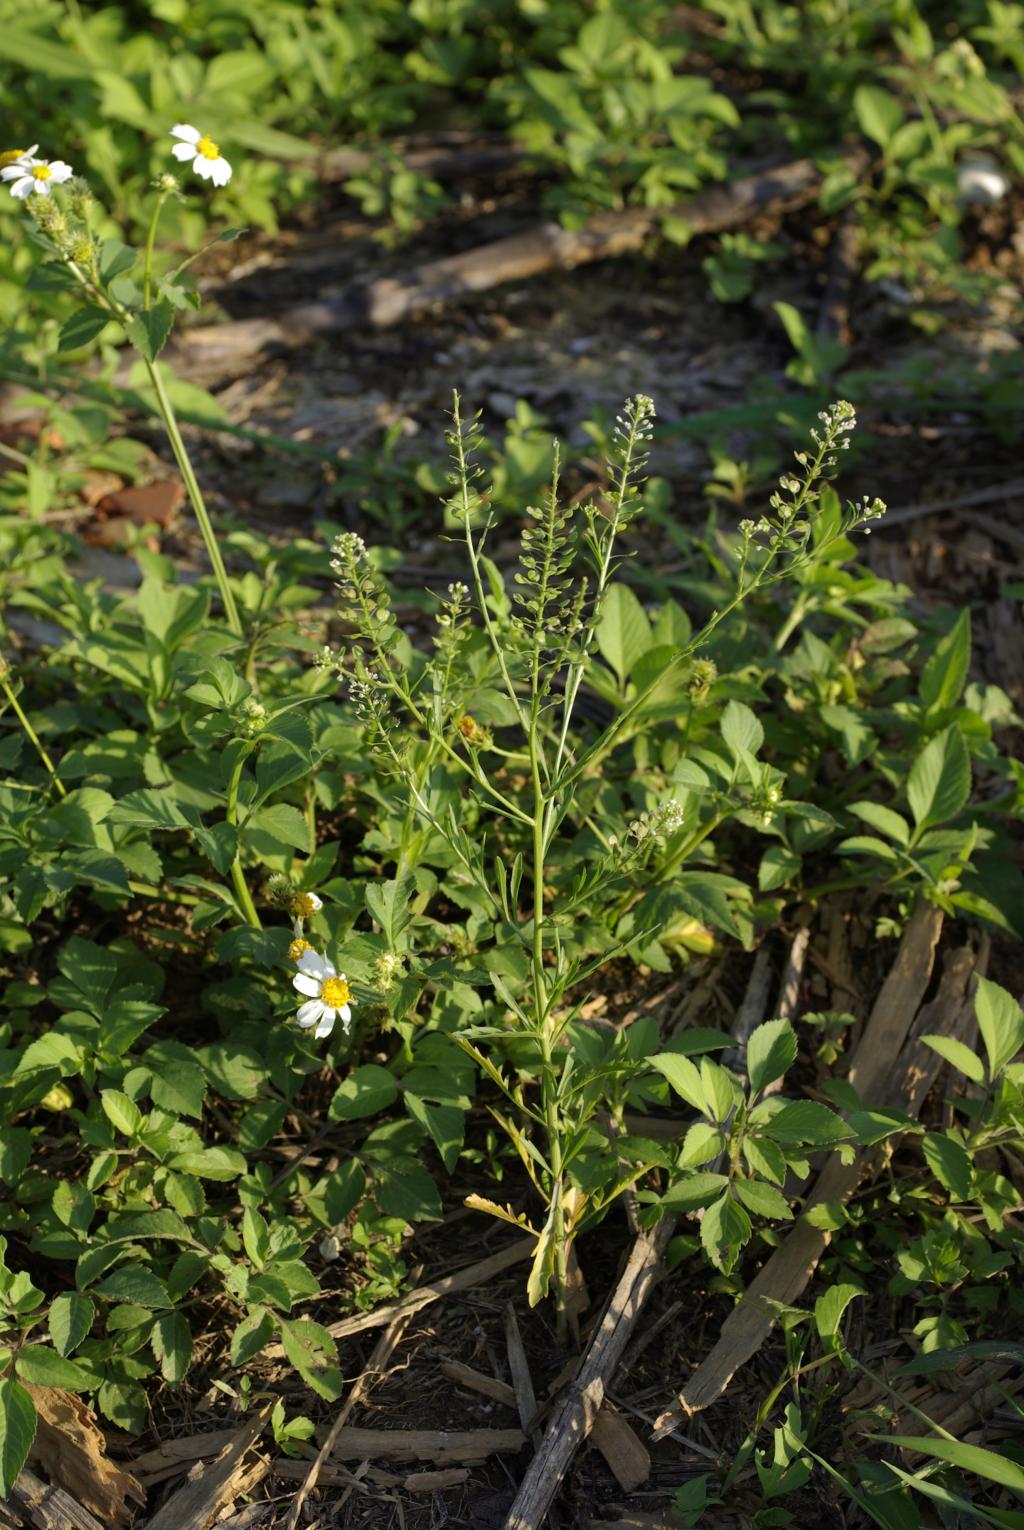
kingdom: Plantae
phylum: Tracheophyta
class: Magnoliopsida
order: Brassicales
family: Brassicaceae
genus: Lepidium
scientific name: Lepidium virginicum
